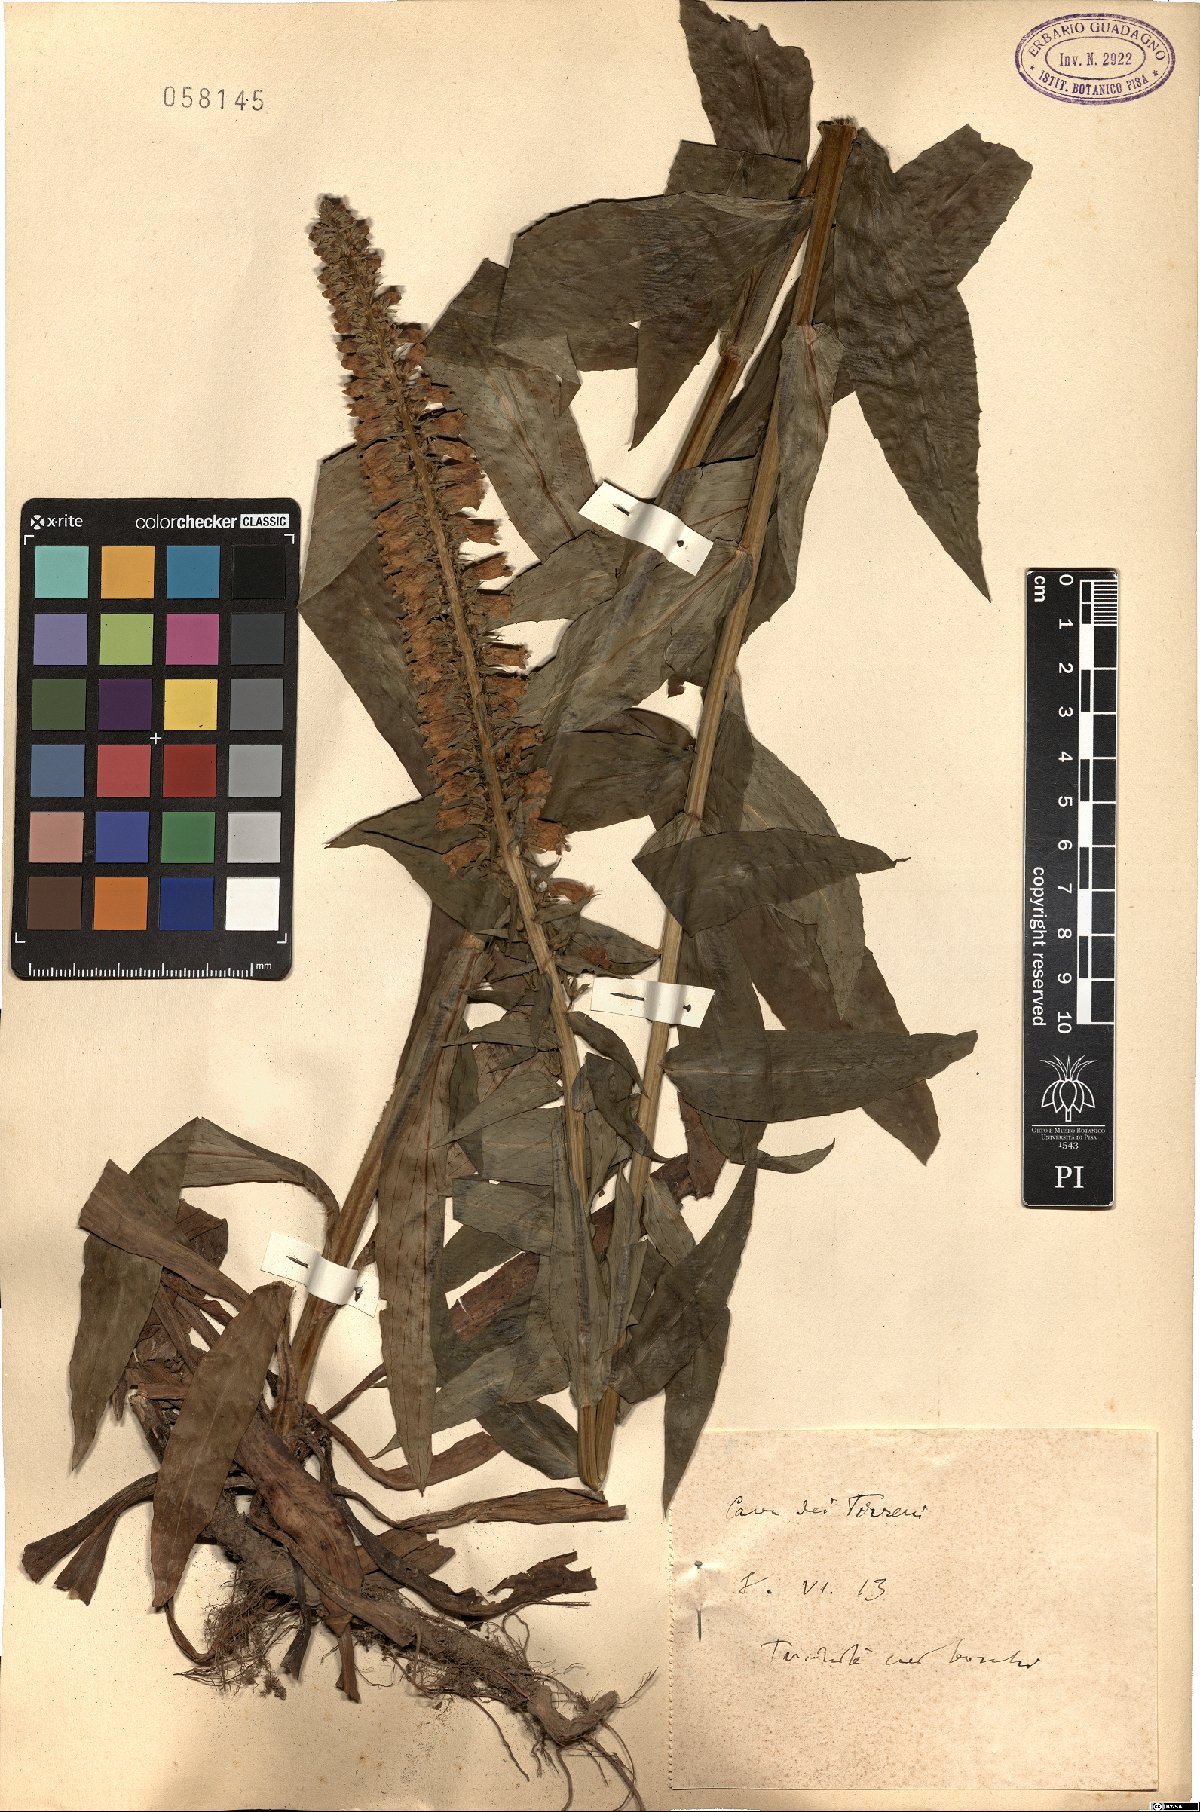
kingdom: Plantae
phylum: Tracheophyta
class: Magnoliopsida
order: Lamiales
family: Plantaginaceae
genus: Digitalis
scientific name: Digitalis
